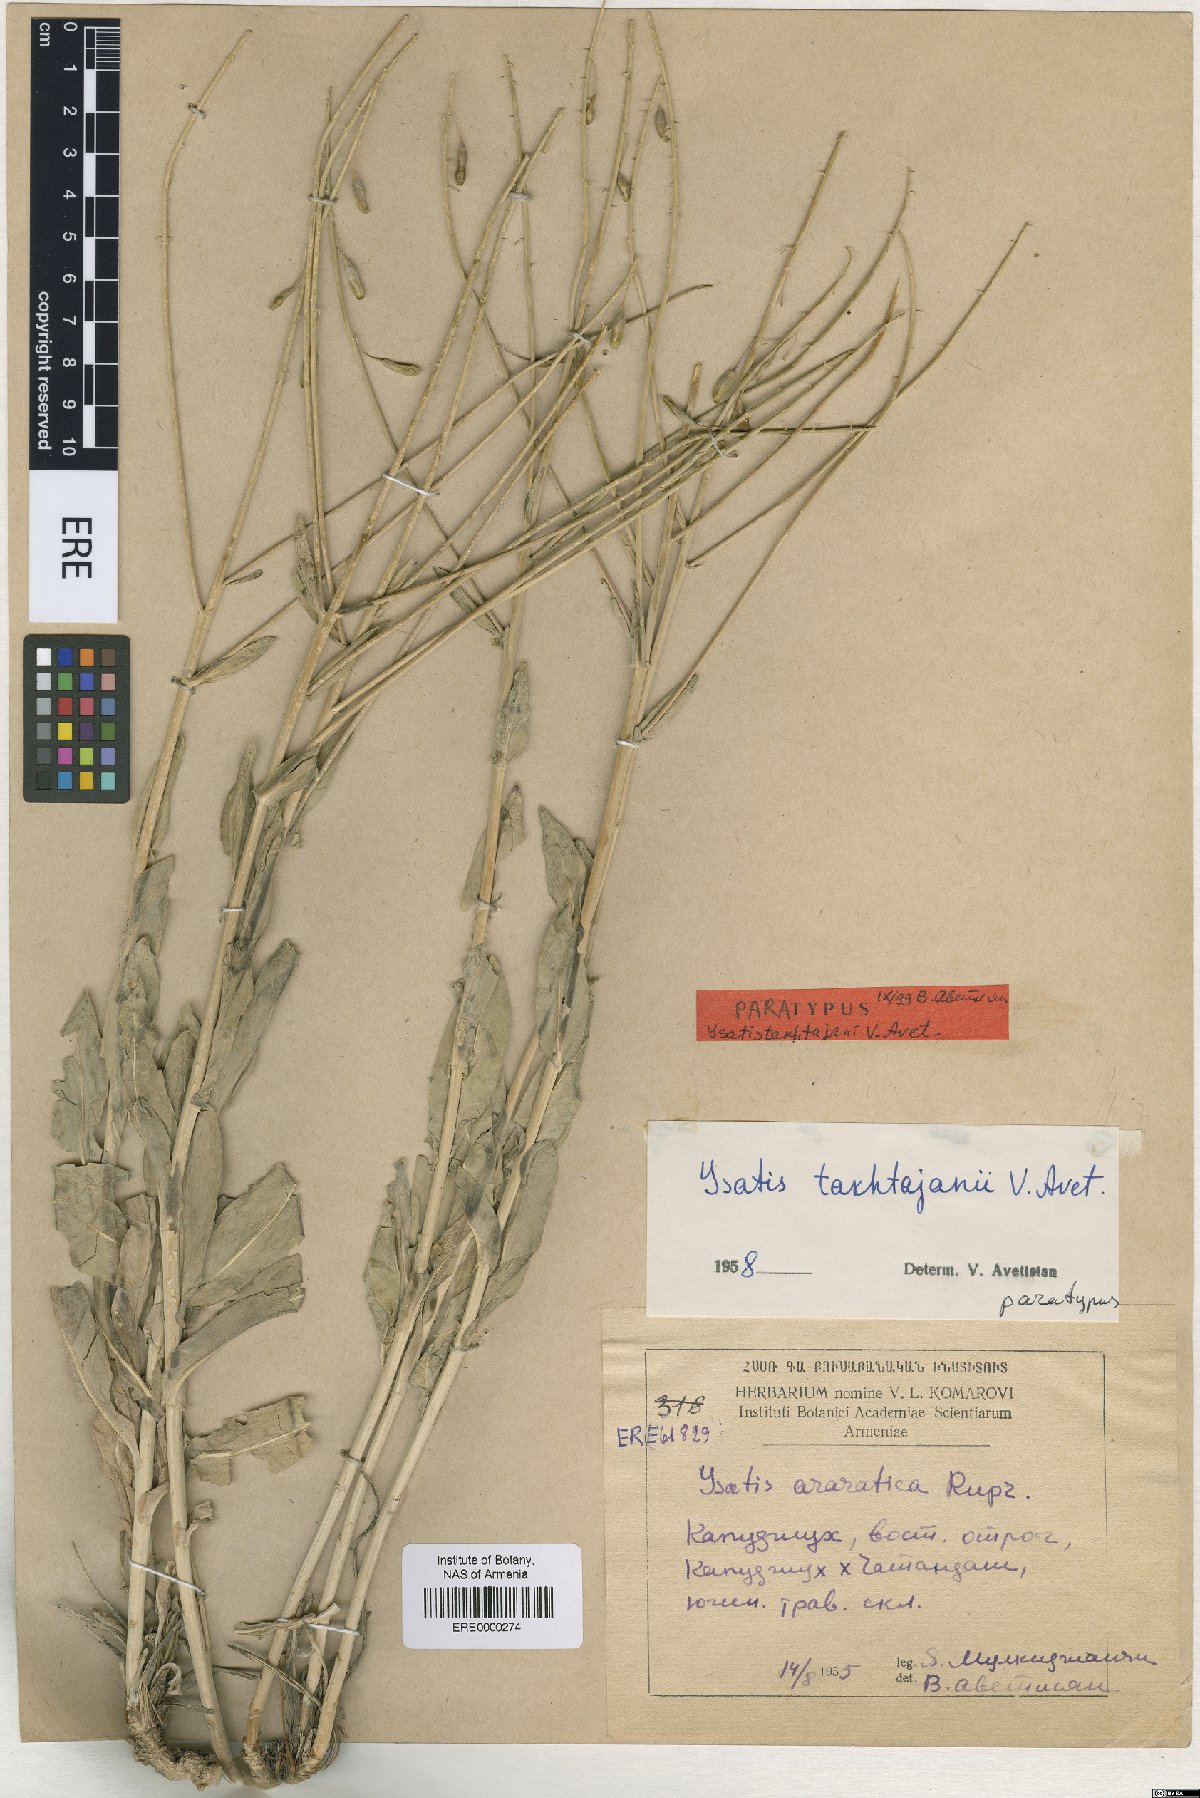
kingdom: Plantae
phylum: Tracheophyta
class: Magnoliopsida
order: Brassicales
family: Brassicaceae
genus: Isatis
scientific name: Isatis takhtajanii
